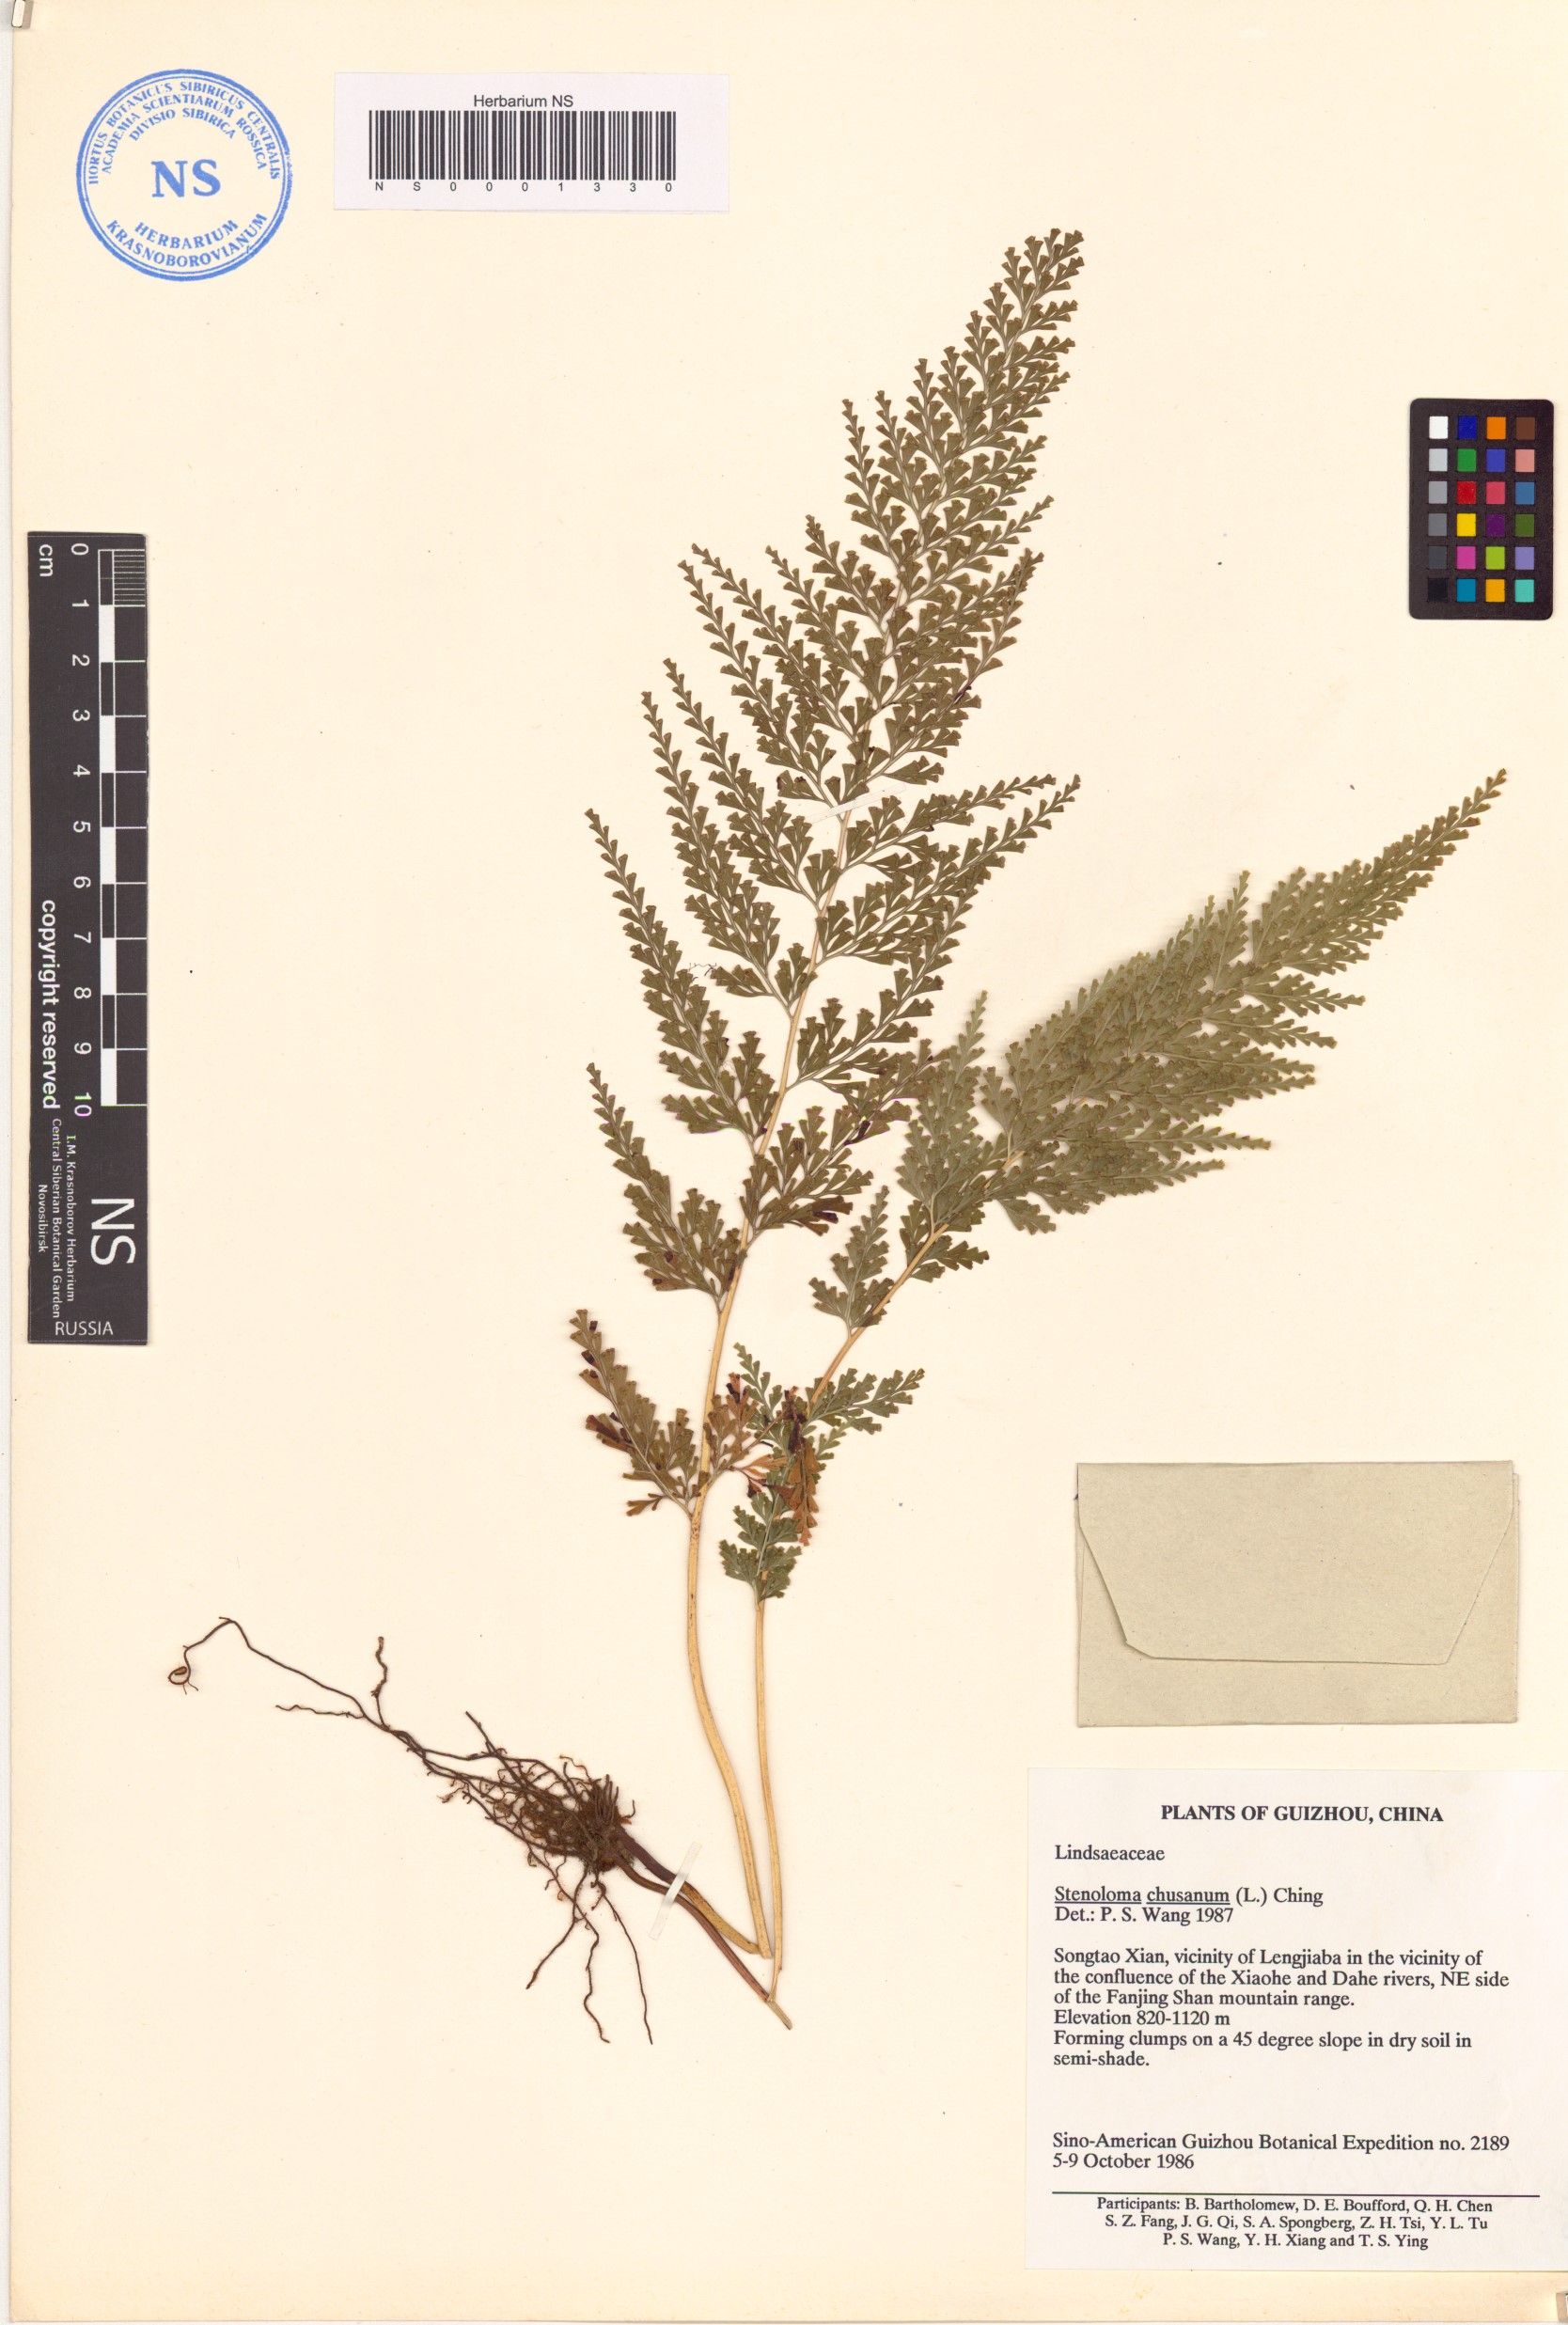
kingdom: Plantae
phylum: Tracheophyta
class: Polypodiopsida
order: Polypodiales
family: Lindsaeaceae
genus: Odontosoria
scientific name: Odontosoria chinensis
